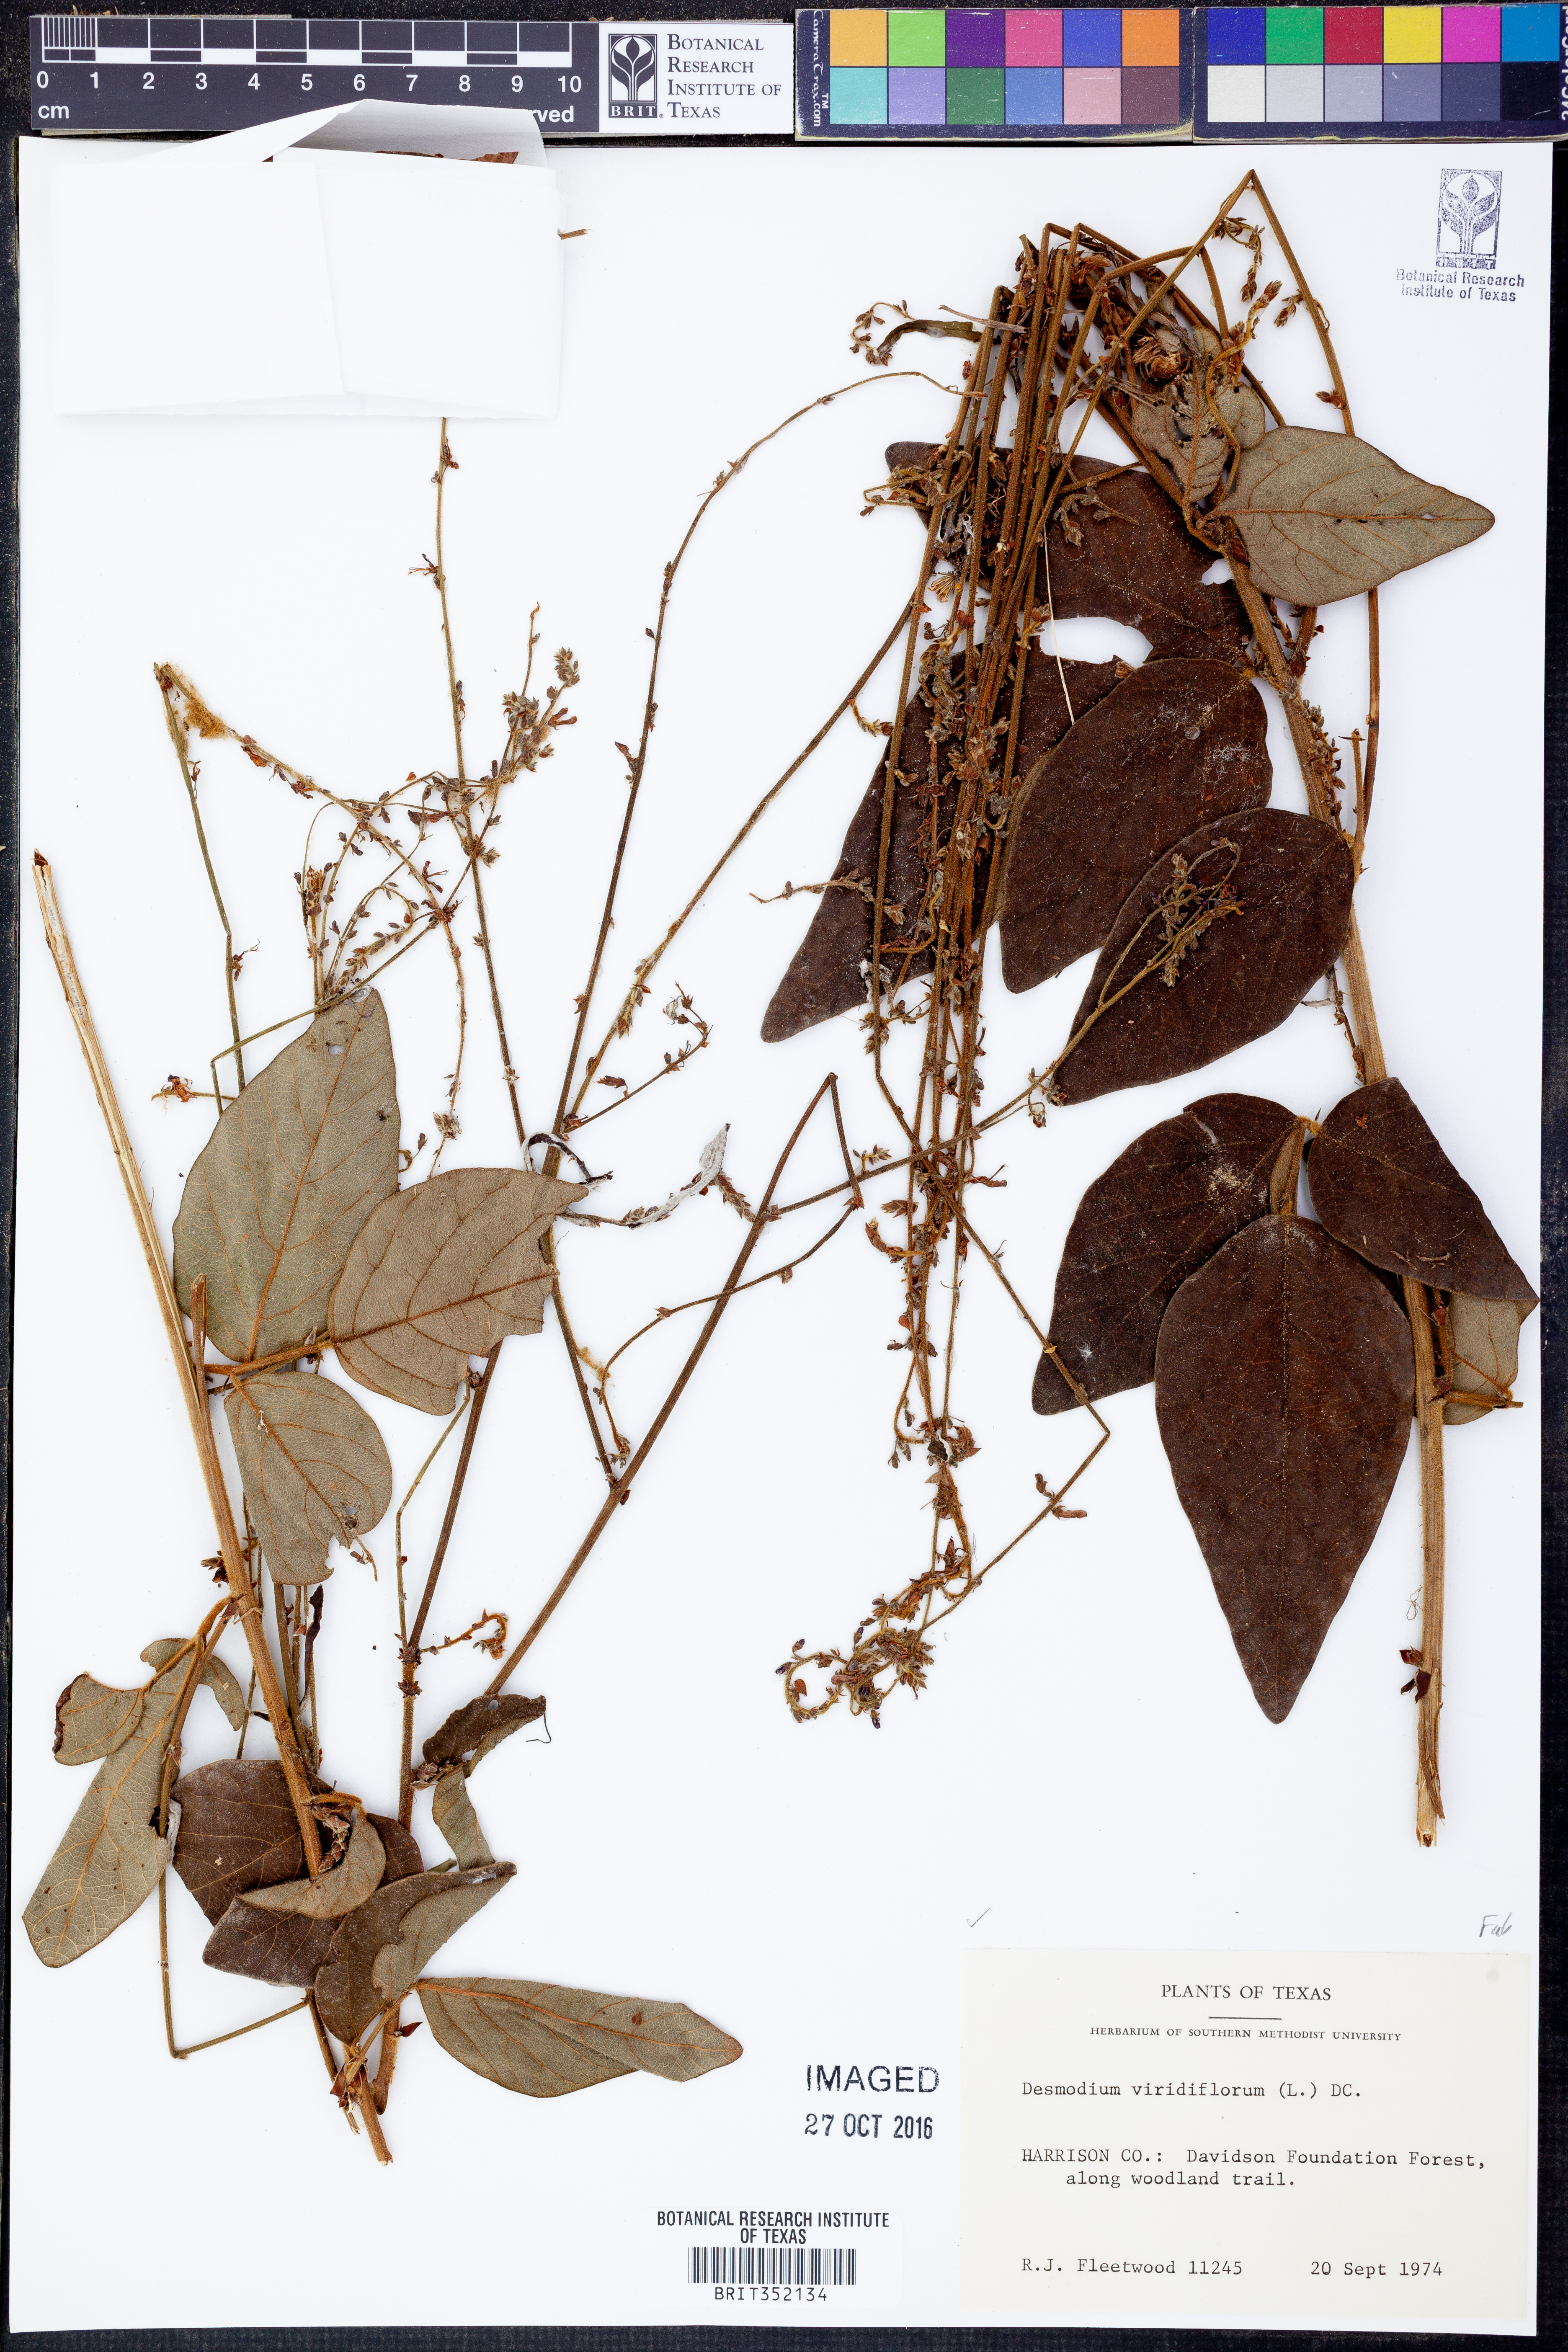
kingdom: Plantae
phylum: Tracheophyta
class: Magnoliopsida
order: Fabales
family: Fabaceae
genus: Desmodium
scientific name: Desmodium viridiflorum
